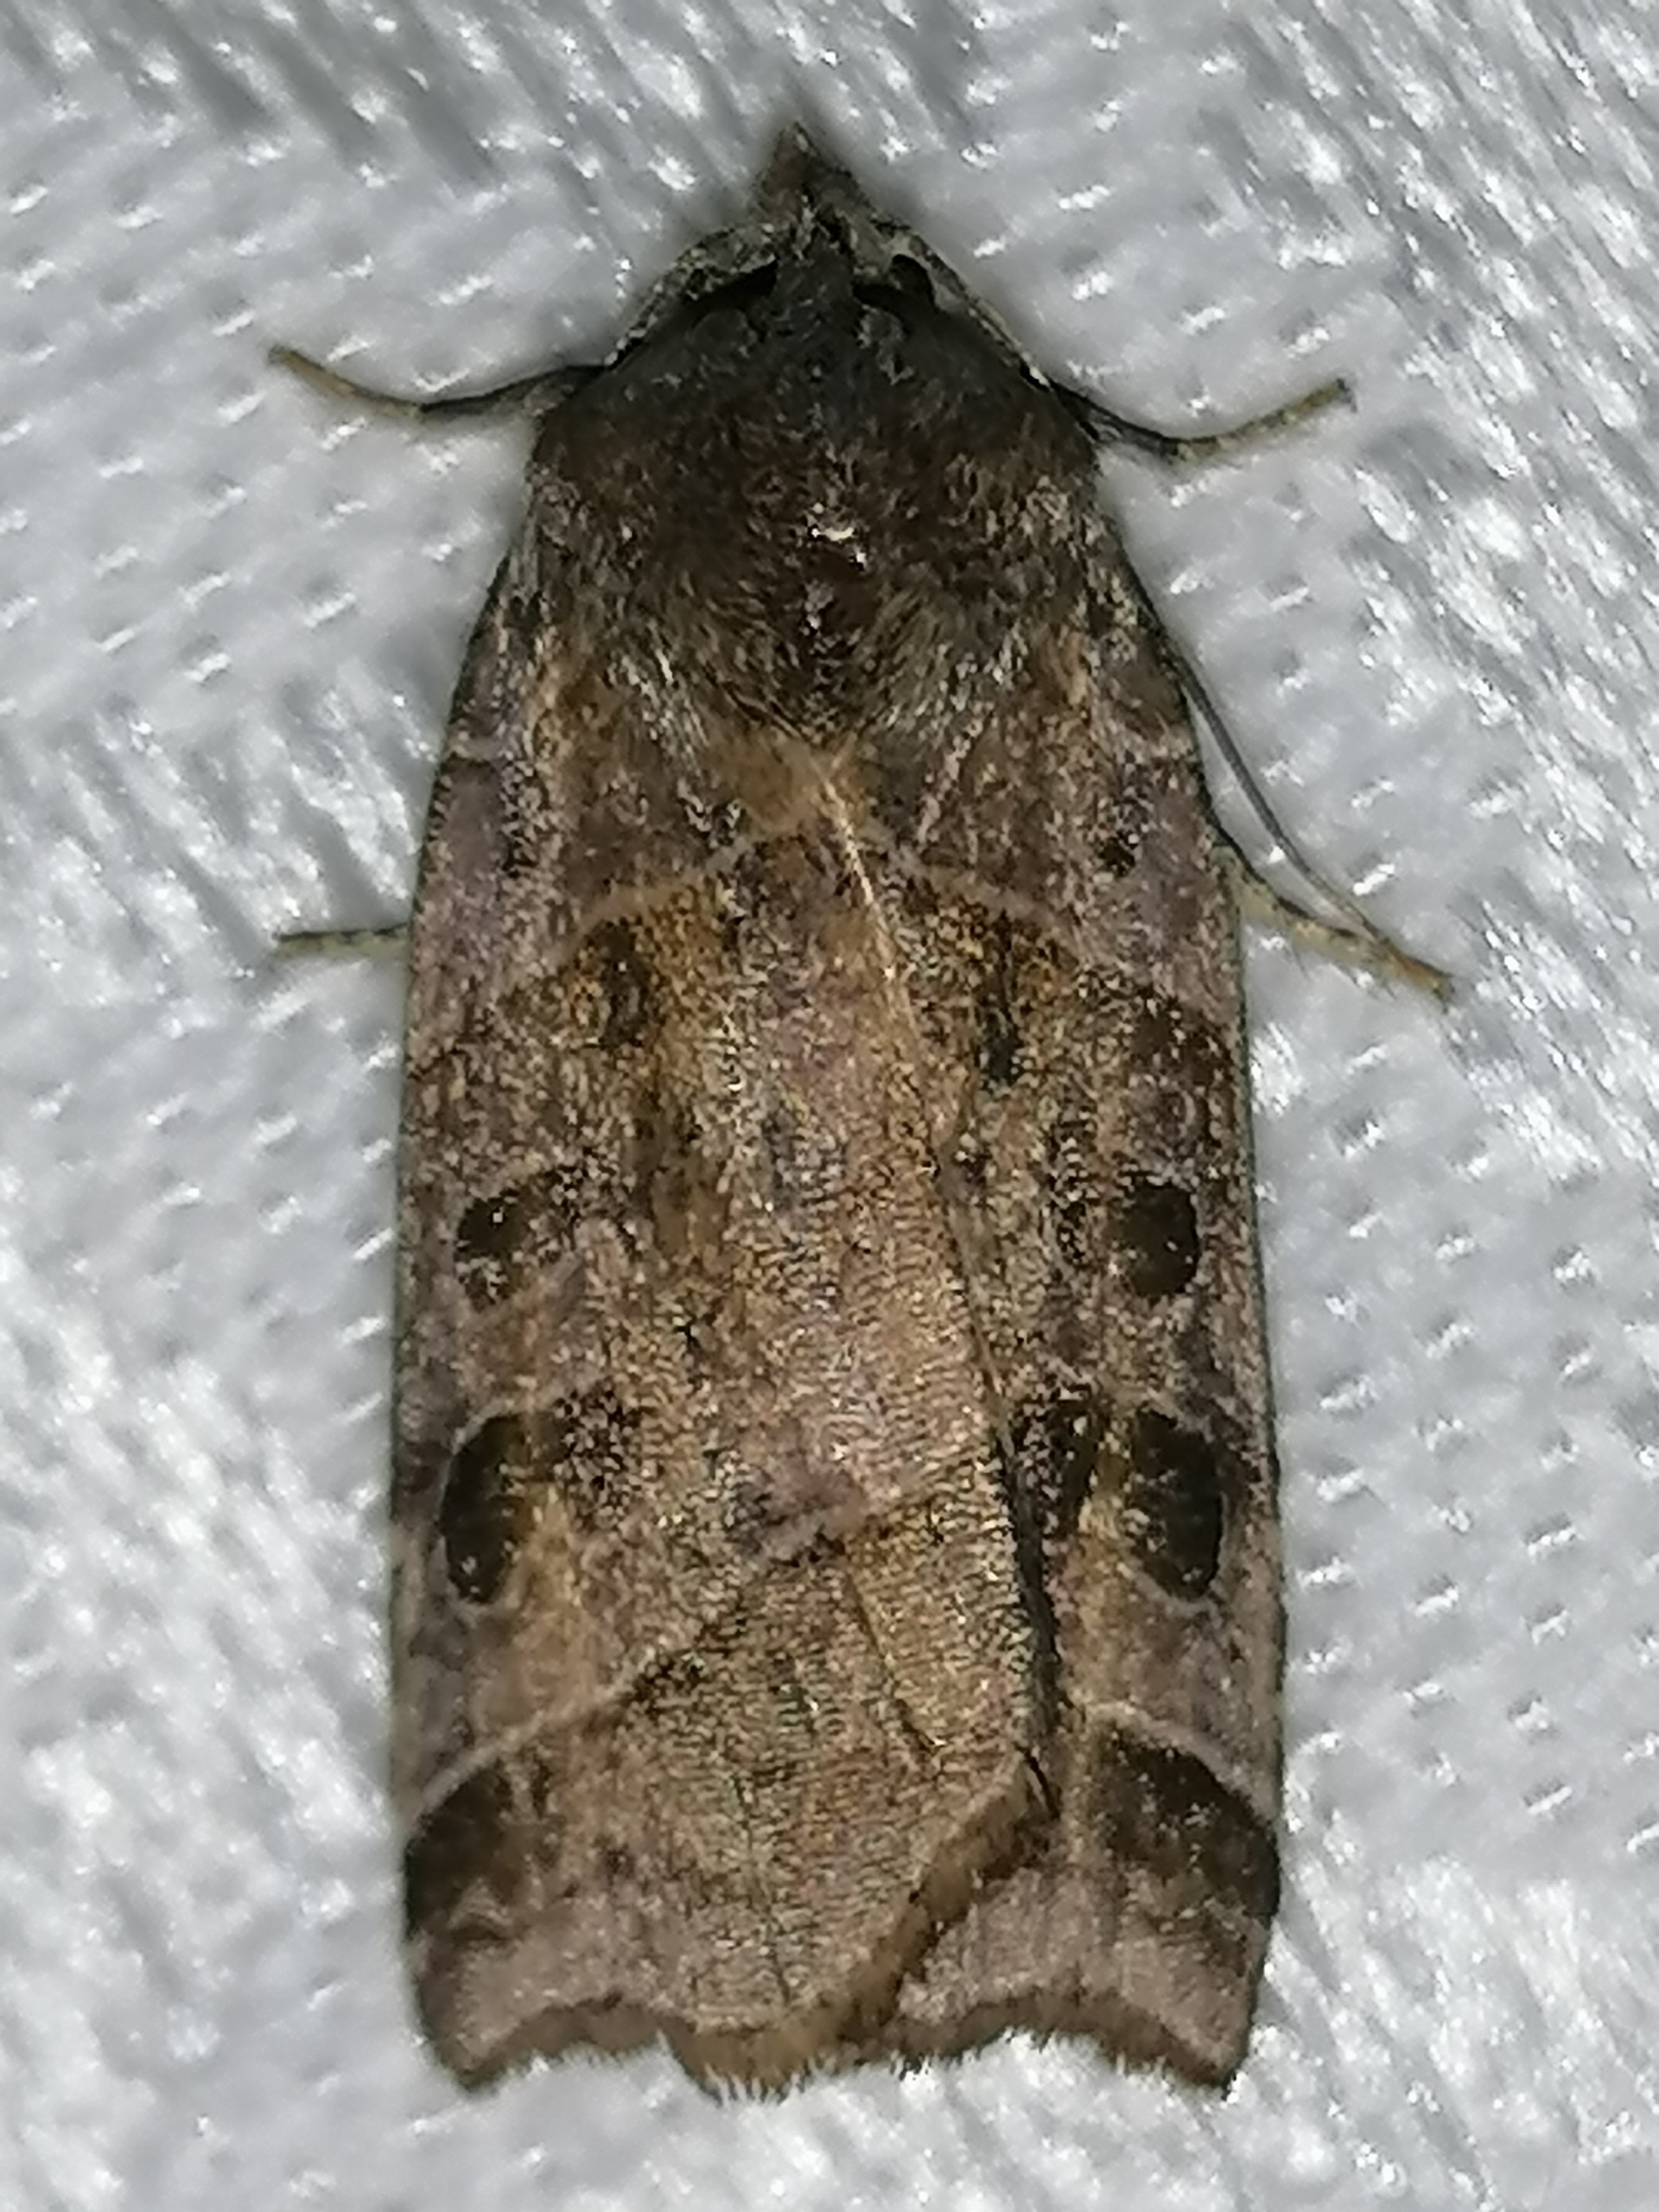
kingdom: Animalia
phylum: Arthropoda
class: Insecta
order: Lepidoptera
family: Noctuidae
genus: Ipimorpha
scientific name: Ipimorpha retusa
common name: Mose-spidsugle
